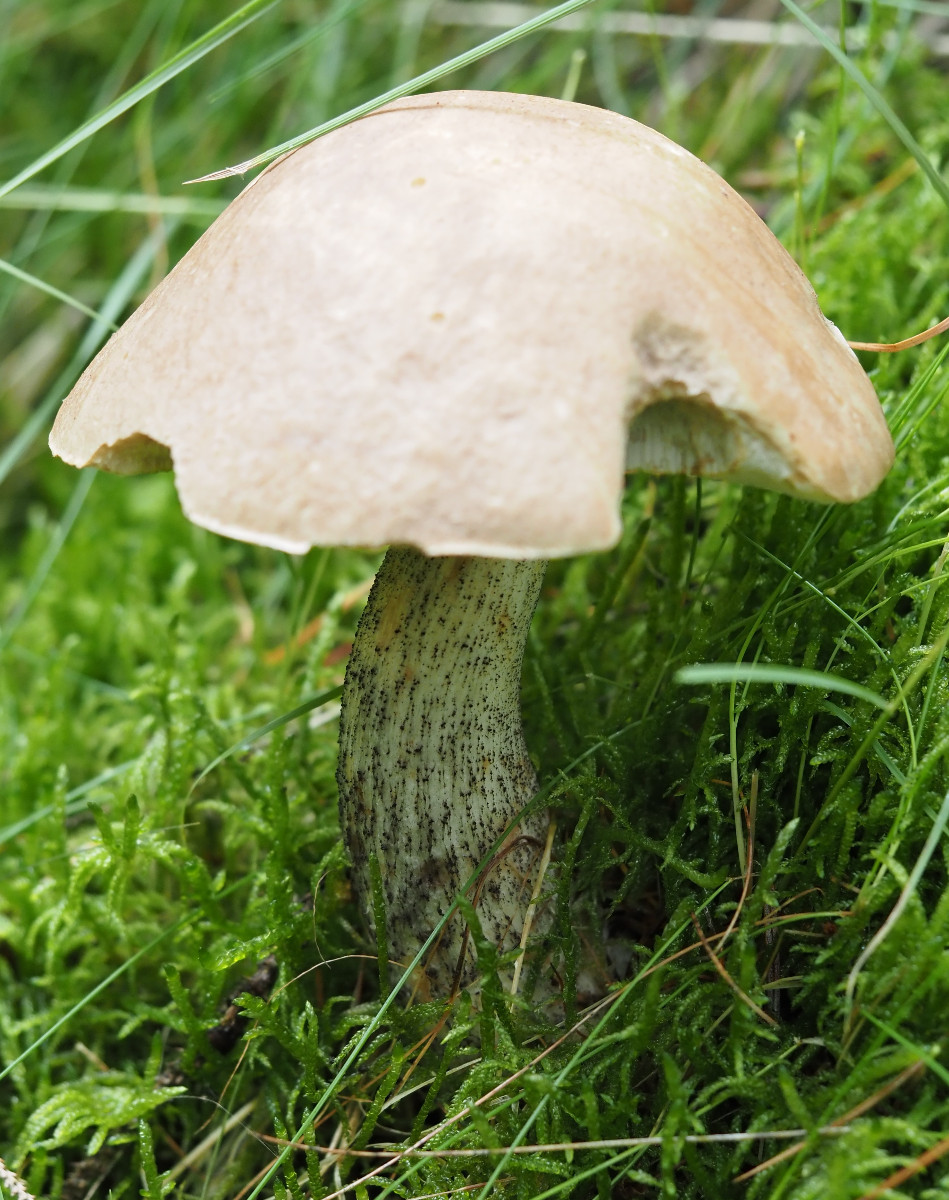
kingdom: Fungi
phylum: Basidiomycota
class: Agaricomycetes
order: Boletales
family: Boletaceae
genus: Leccinum
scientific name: Leccinum scabrum
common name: brun skælrørhat
